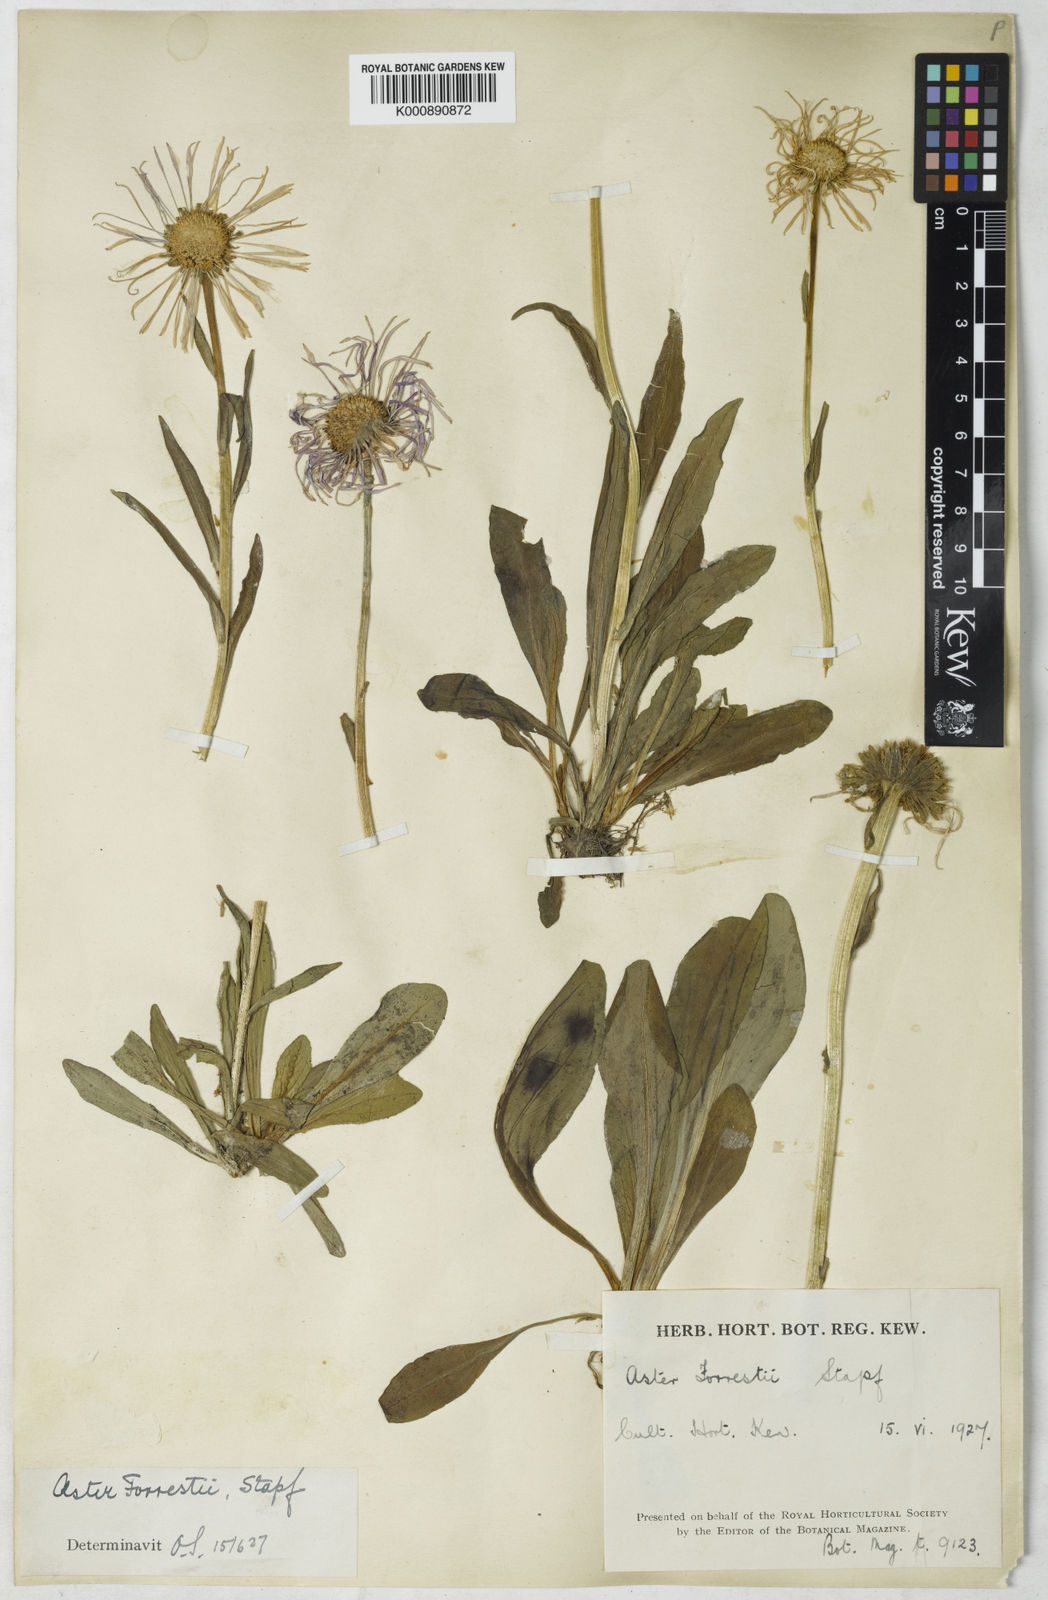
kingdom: Plantae
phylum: Tracheophyta
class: Magnoliopsida
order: Asterales
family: Asteraceae
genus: Aster
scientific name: Aster souliei
